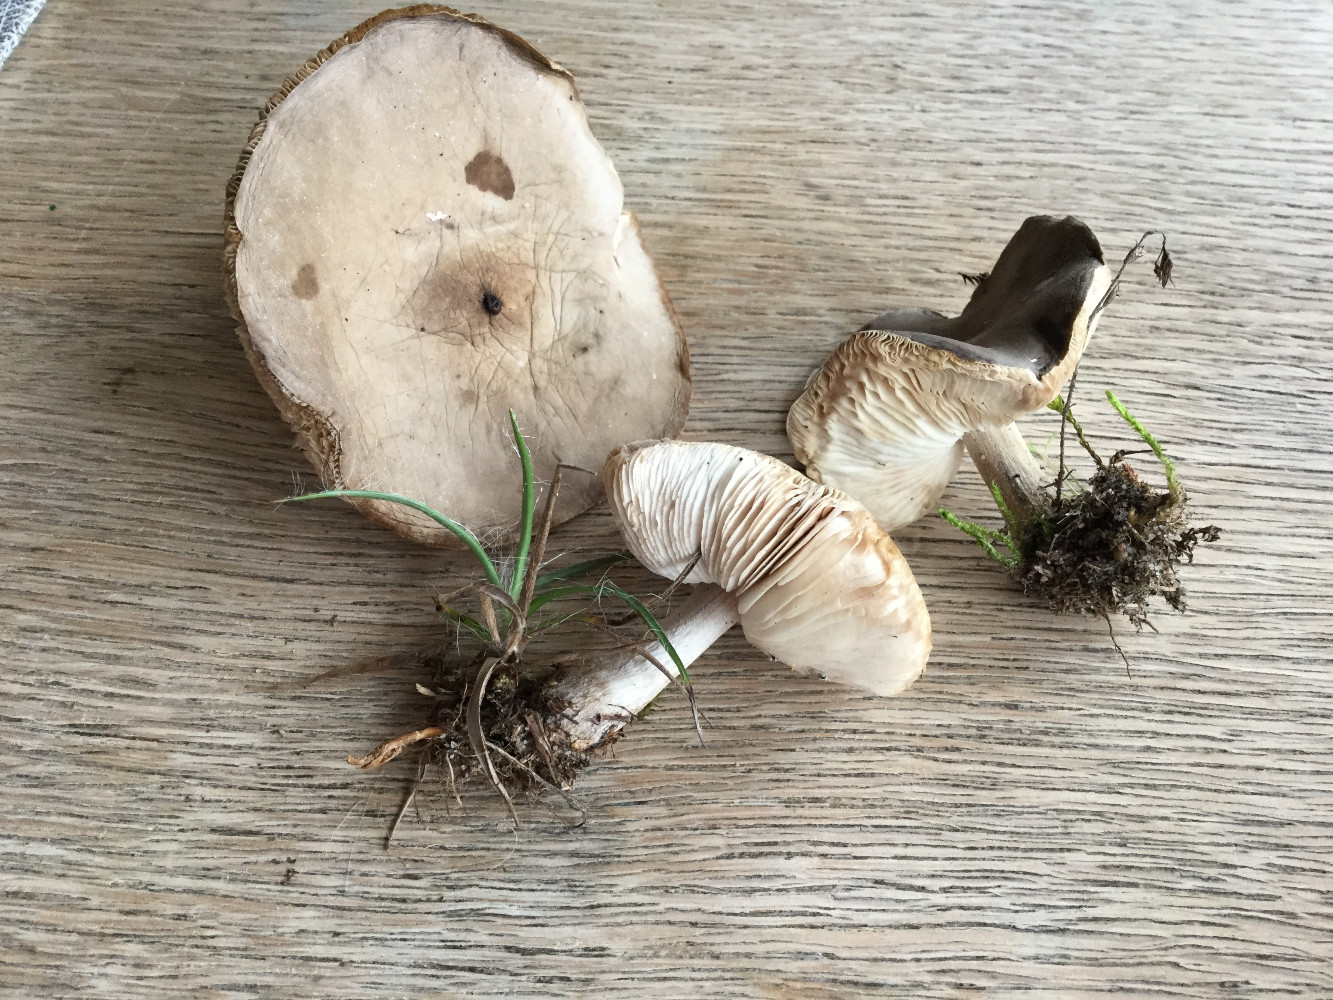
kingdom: Fungi
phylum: Basidiomycota
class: Agaricomycetes
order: Agaricales
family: Tricholomataceae
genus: Melanoleuca
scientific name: Melanoleuca polioleuca
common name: hvidbladet munkehat
